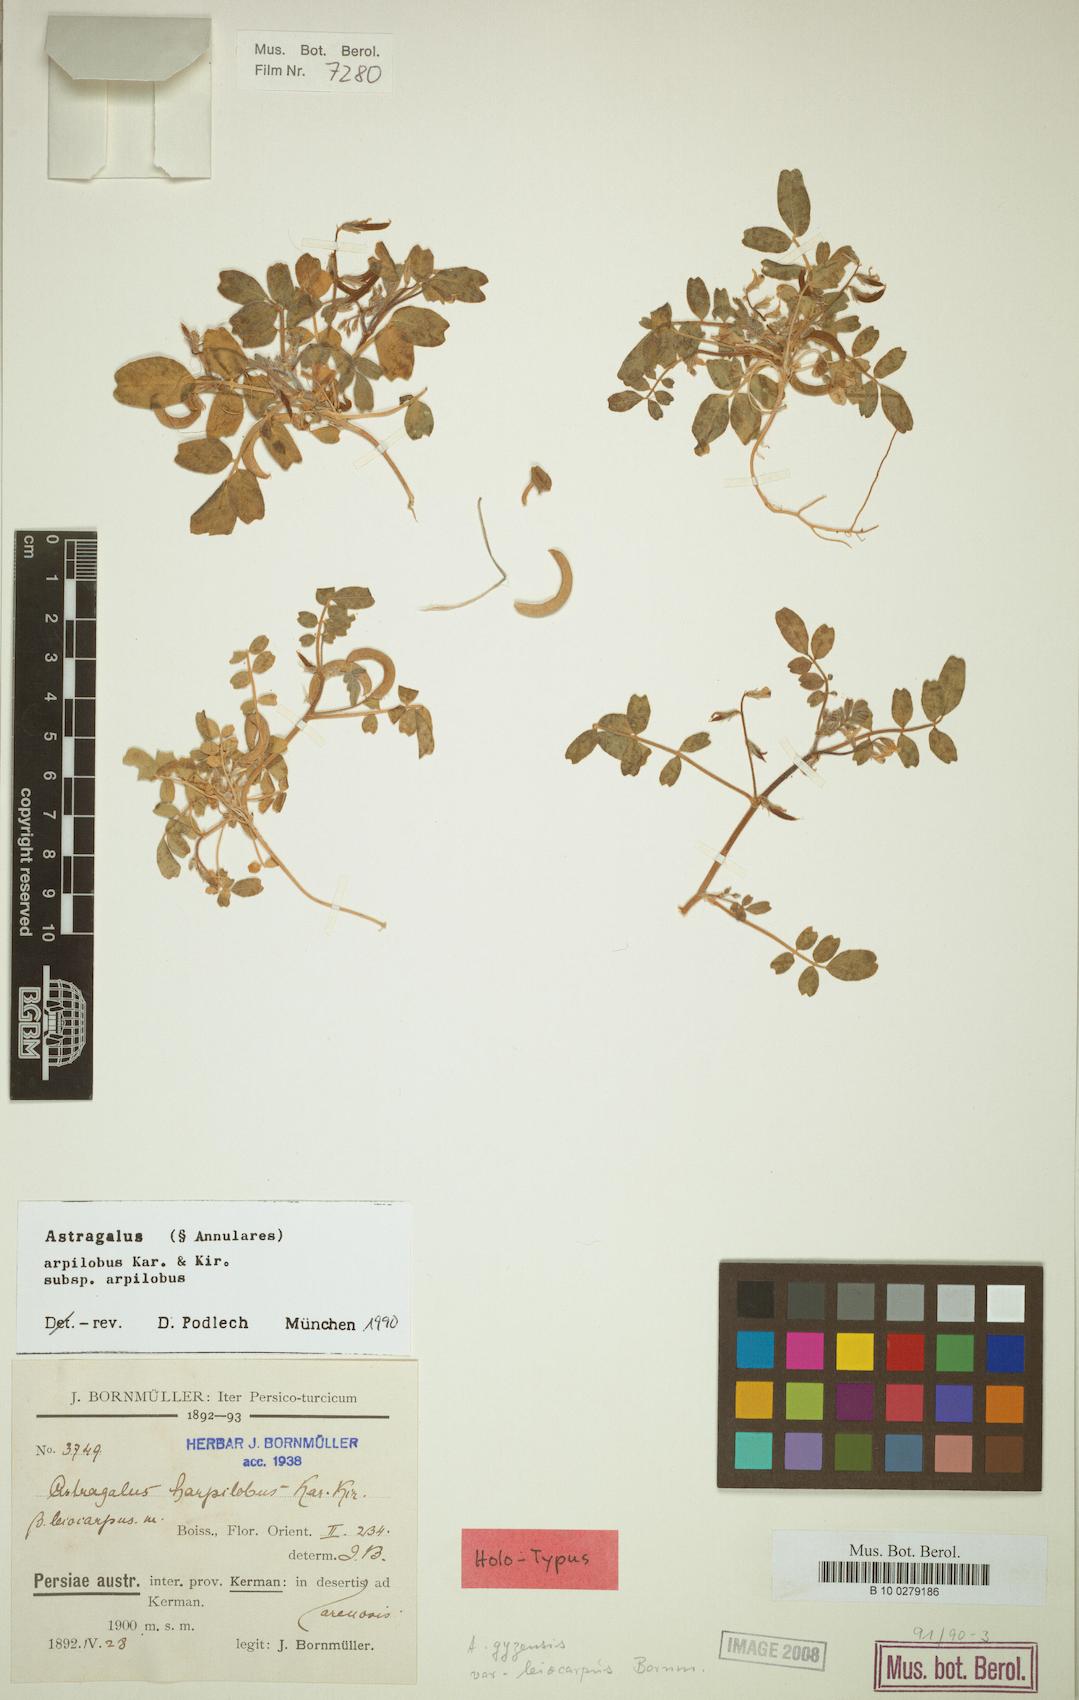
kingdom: Plantae
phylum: Tracheophyta
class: Magnoliopsida
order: Fabales
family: Fabaceae
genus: Astragalus
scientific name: Astragalus arpilobus
